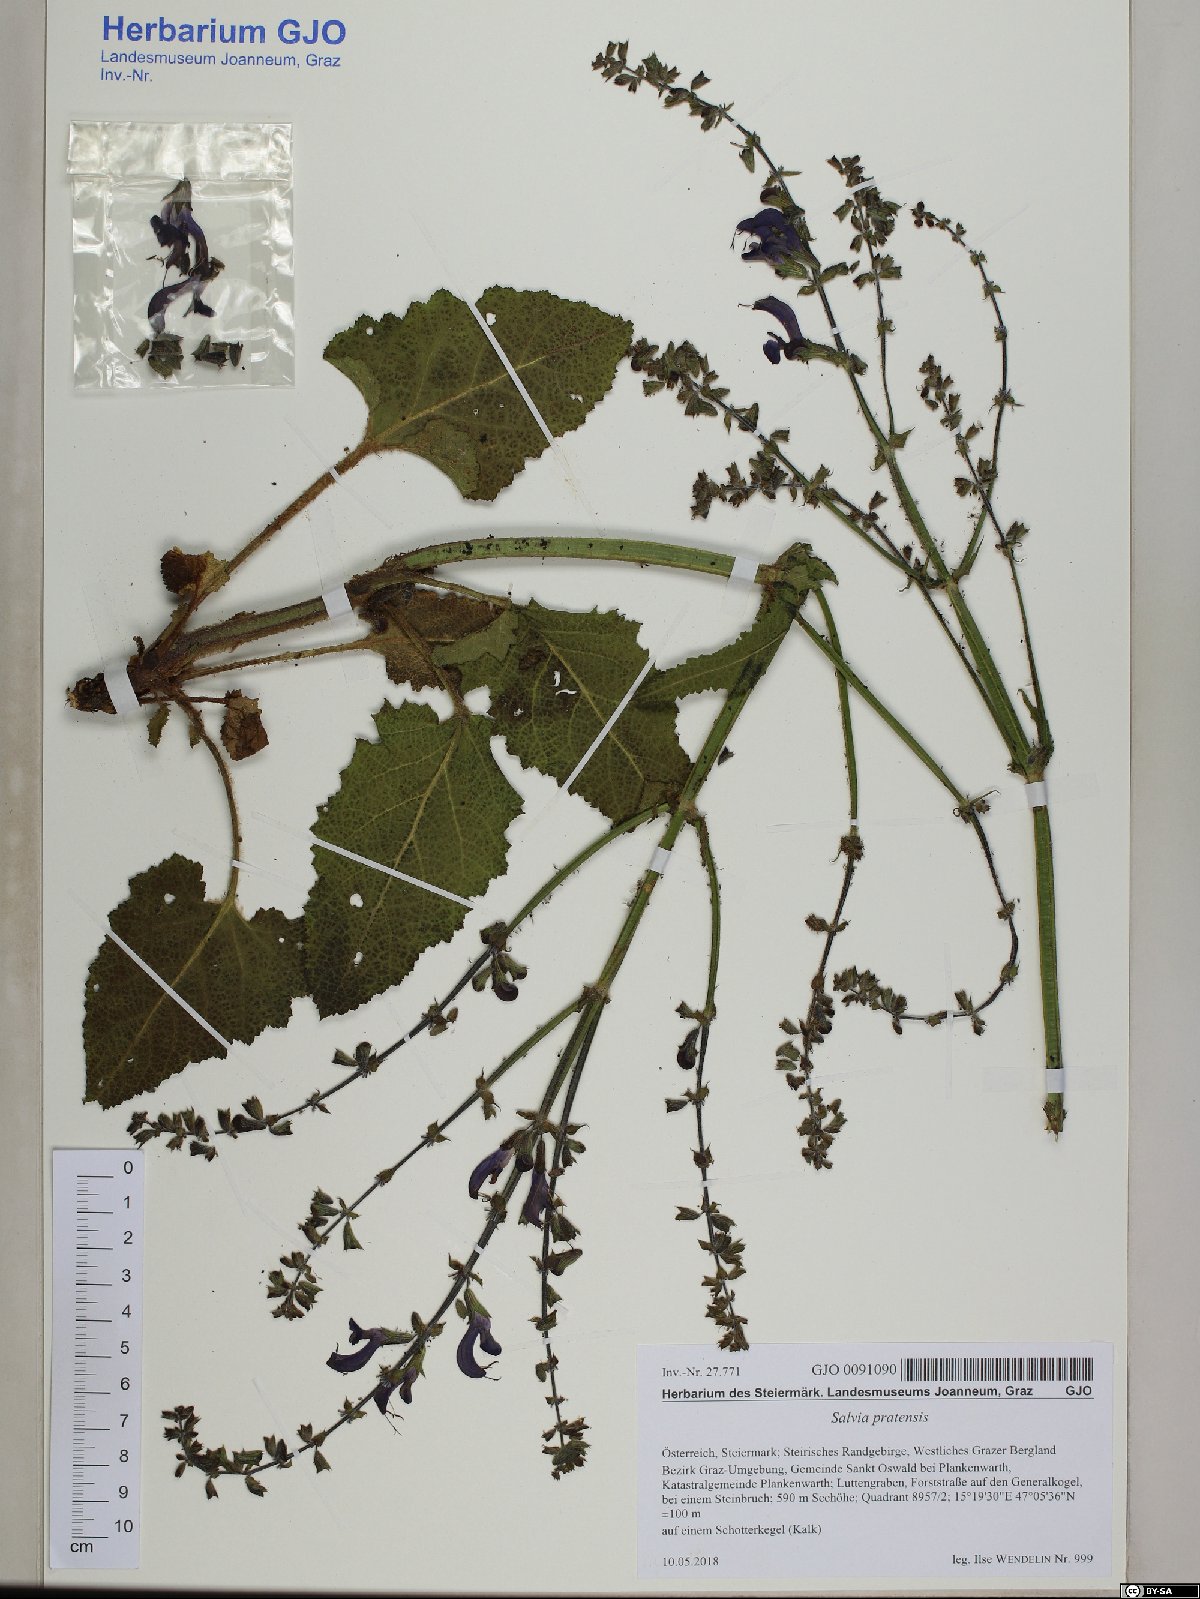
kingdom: Plantae
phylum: Tracheophyta
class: Magnoliopsida
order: Lamiales
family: Lamiaceae
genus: Salvia
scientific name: Salvia pratensis
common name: Meadow sage
